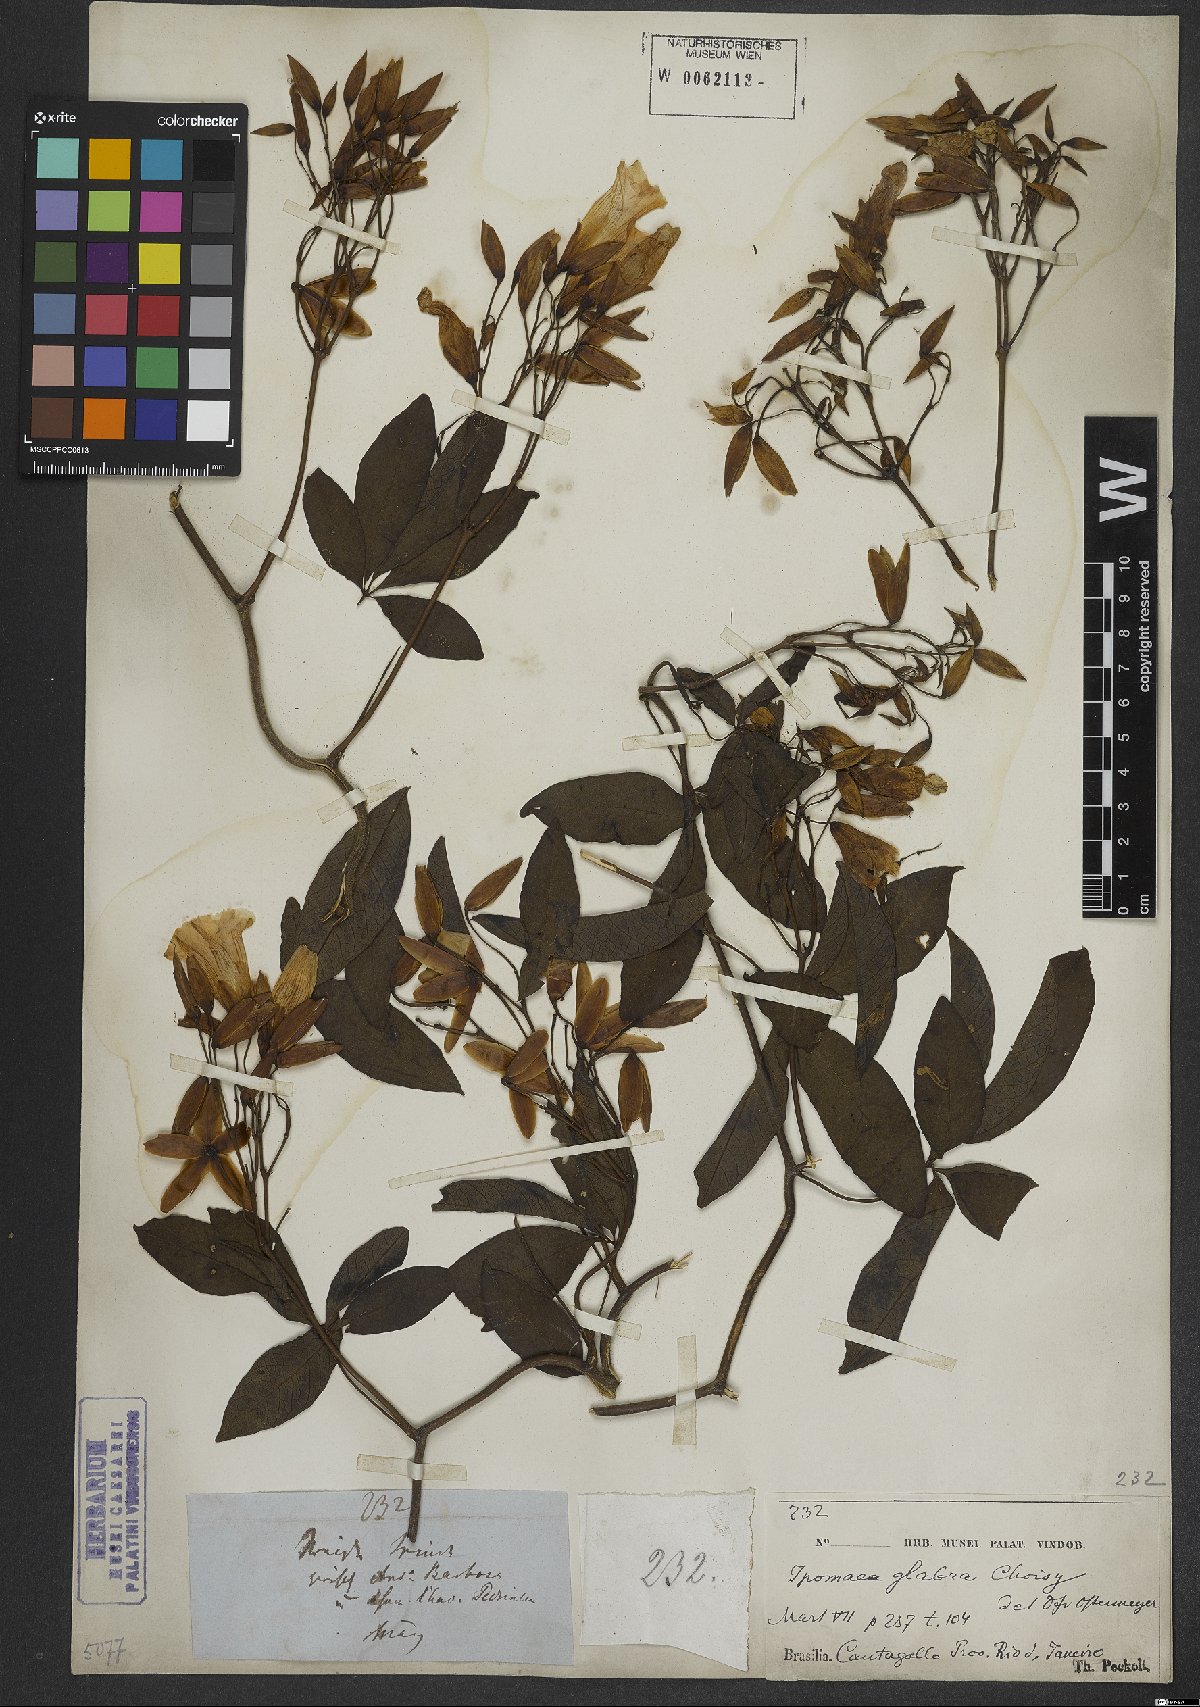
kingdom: Plantae
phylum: Tracheophyta
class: Magnoliopsida
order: Solanales
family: Convolvulaceae
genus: Ipomoea
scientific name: Ipomoea macrosepala
